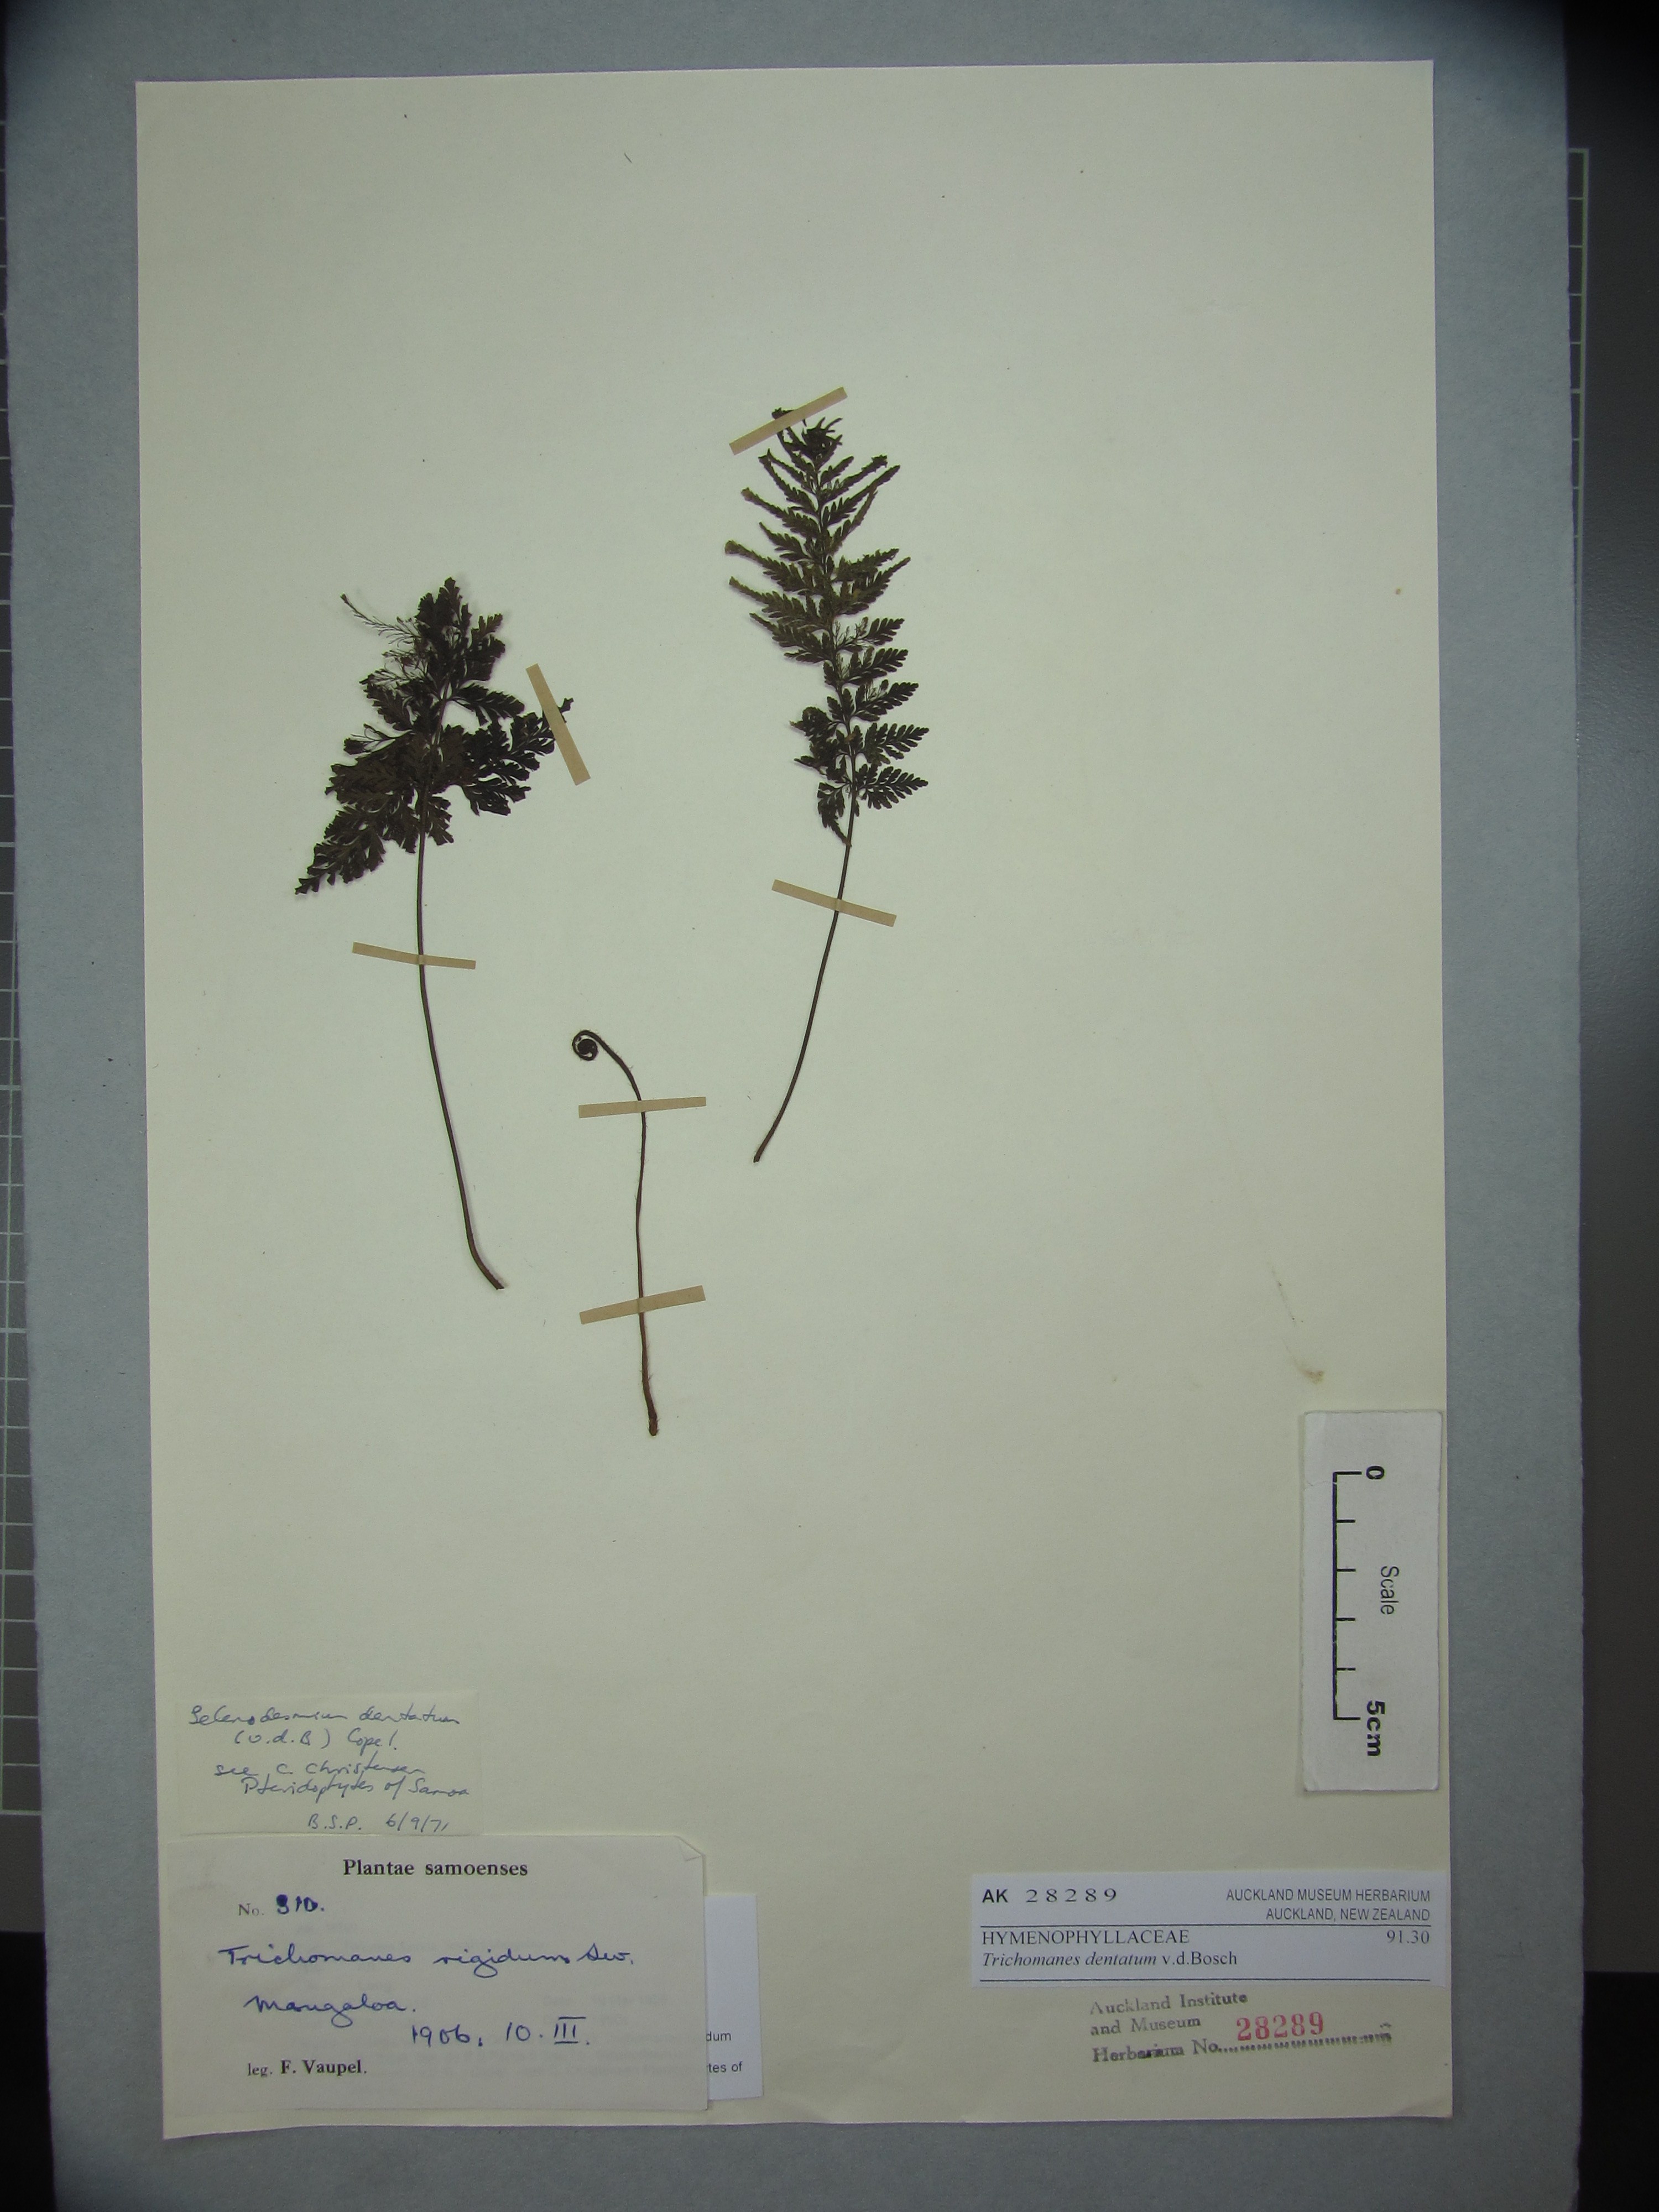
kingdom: Plantae
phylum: Tracheophyta
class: Polypodiopsida
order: Hymenophyllales
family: Hymenophyllaceae
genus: Abrodictyum
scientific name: Abrodictyum dentatum
